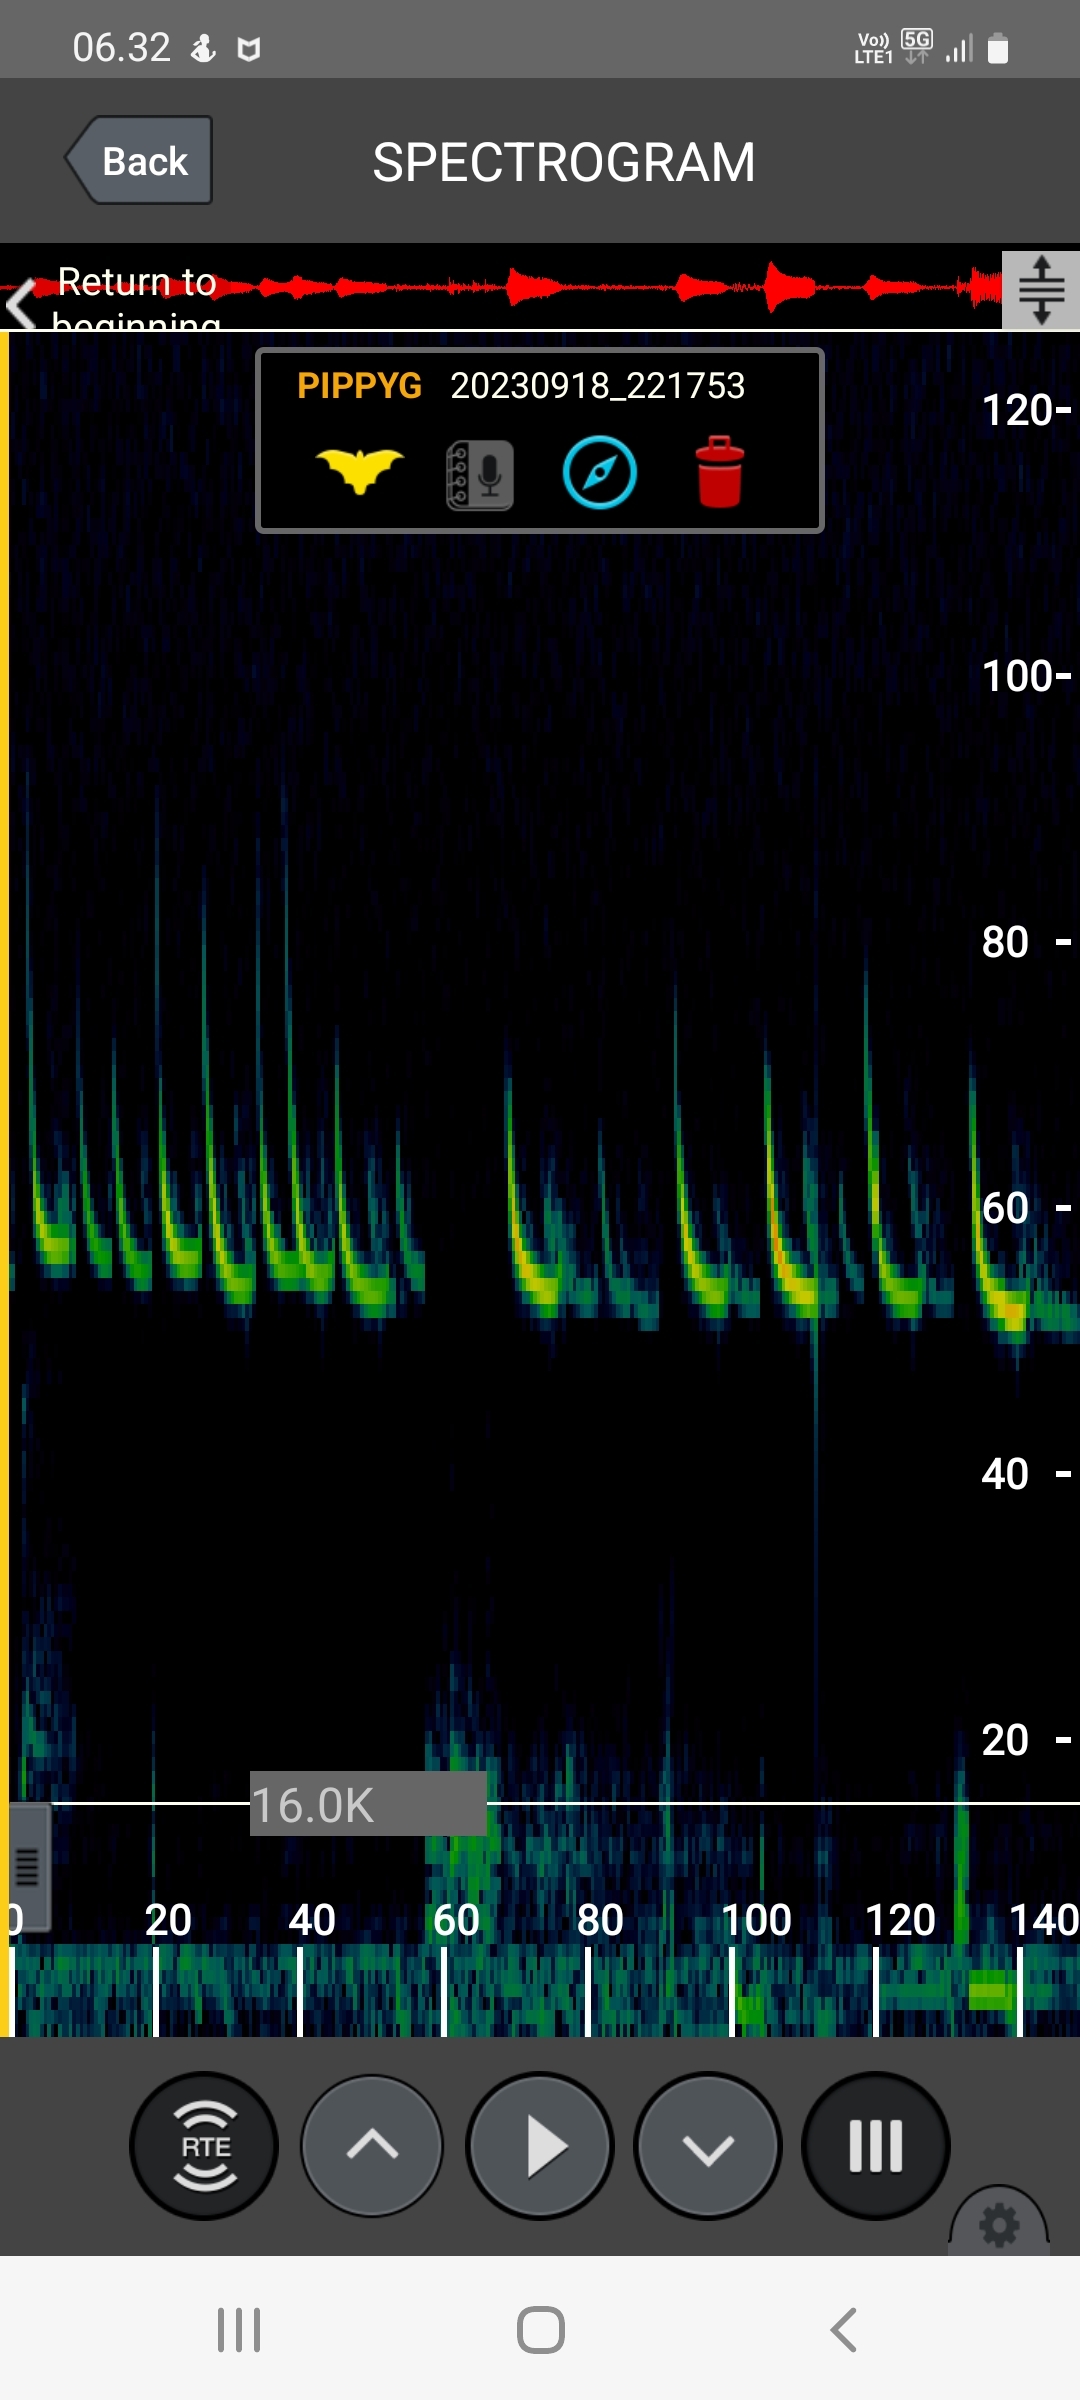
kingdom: Animalia
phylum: Chordata
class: Mammalia
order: Chiroptera
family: Vespertilionidae
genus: Pipistrellus
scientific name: Pipistrellus pygmaeus
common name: Dværgflagermus
